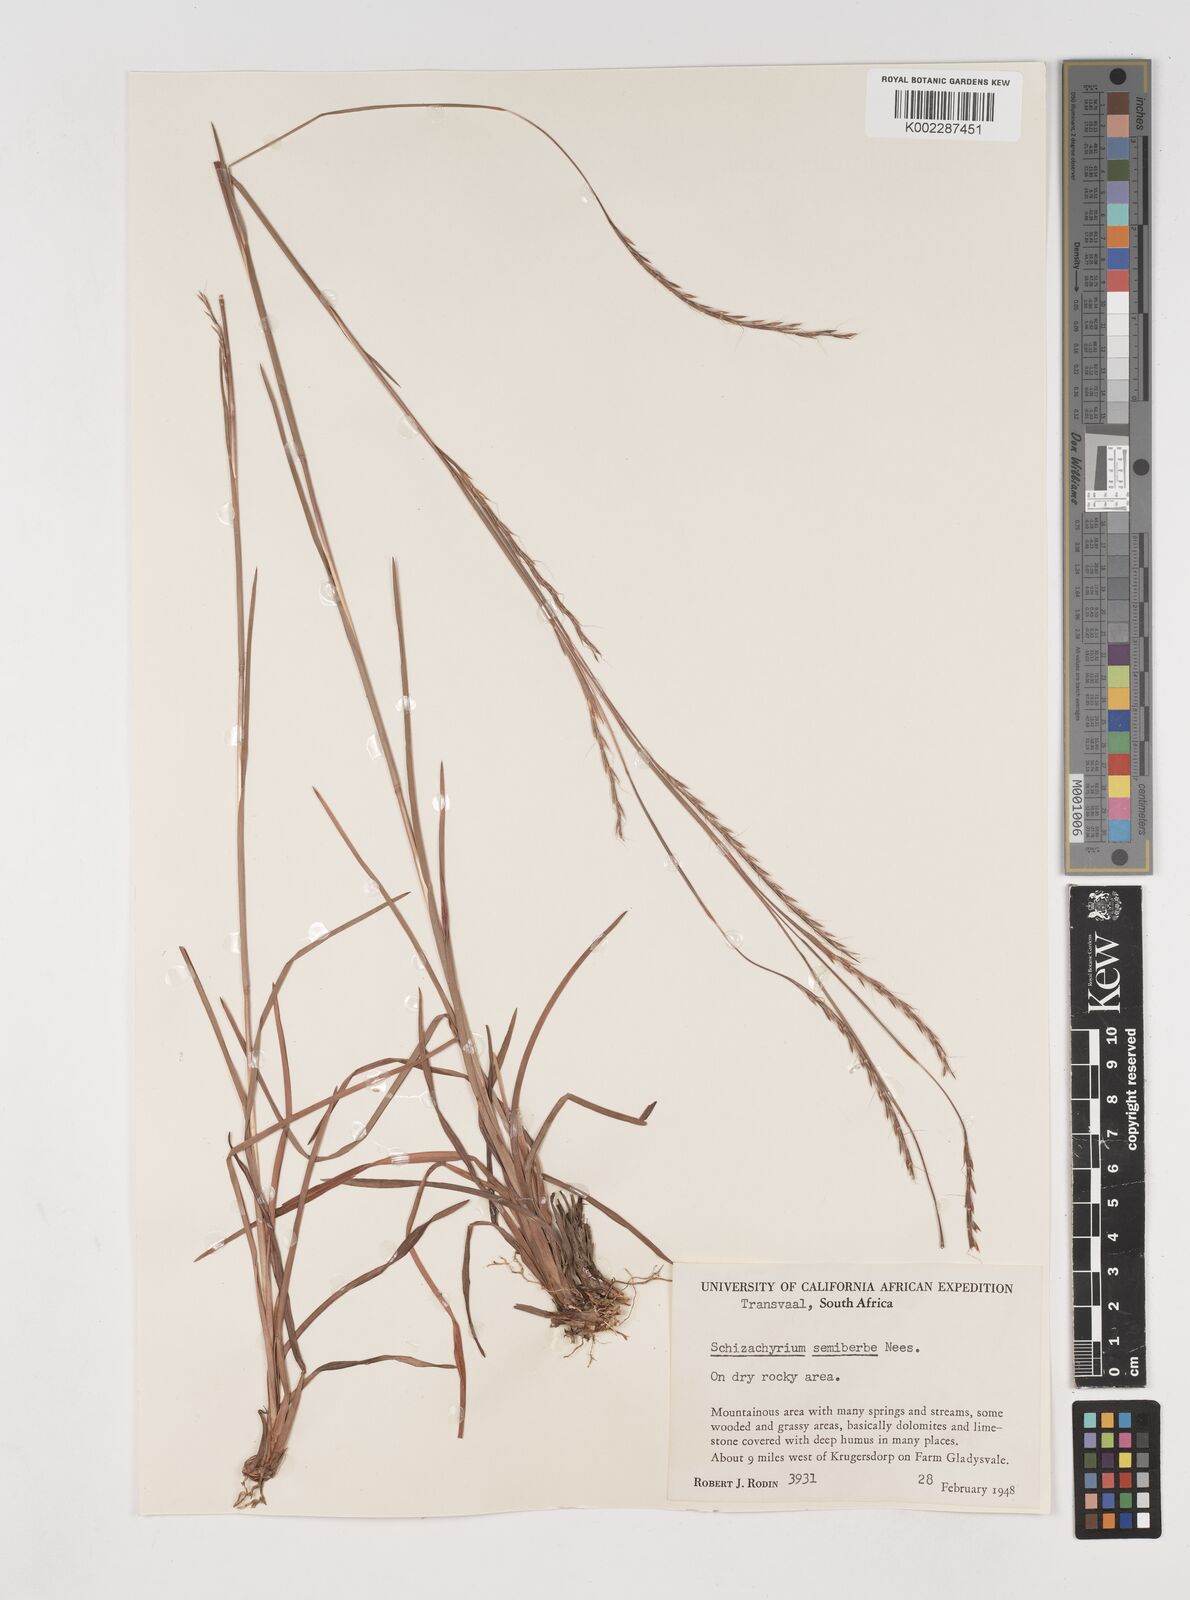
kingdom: Plantae
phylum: Tracheophyta
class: Liliopsida
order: Poales
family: Poaceae
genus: Schizachyrium
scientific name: Schizachyrium sanguineum
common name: Crimson bluestem
